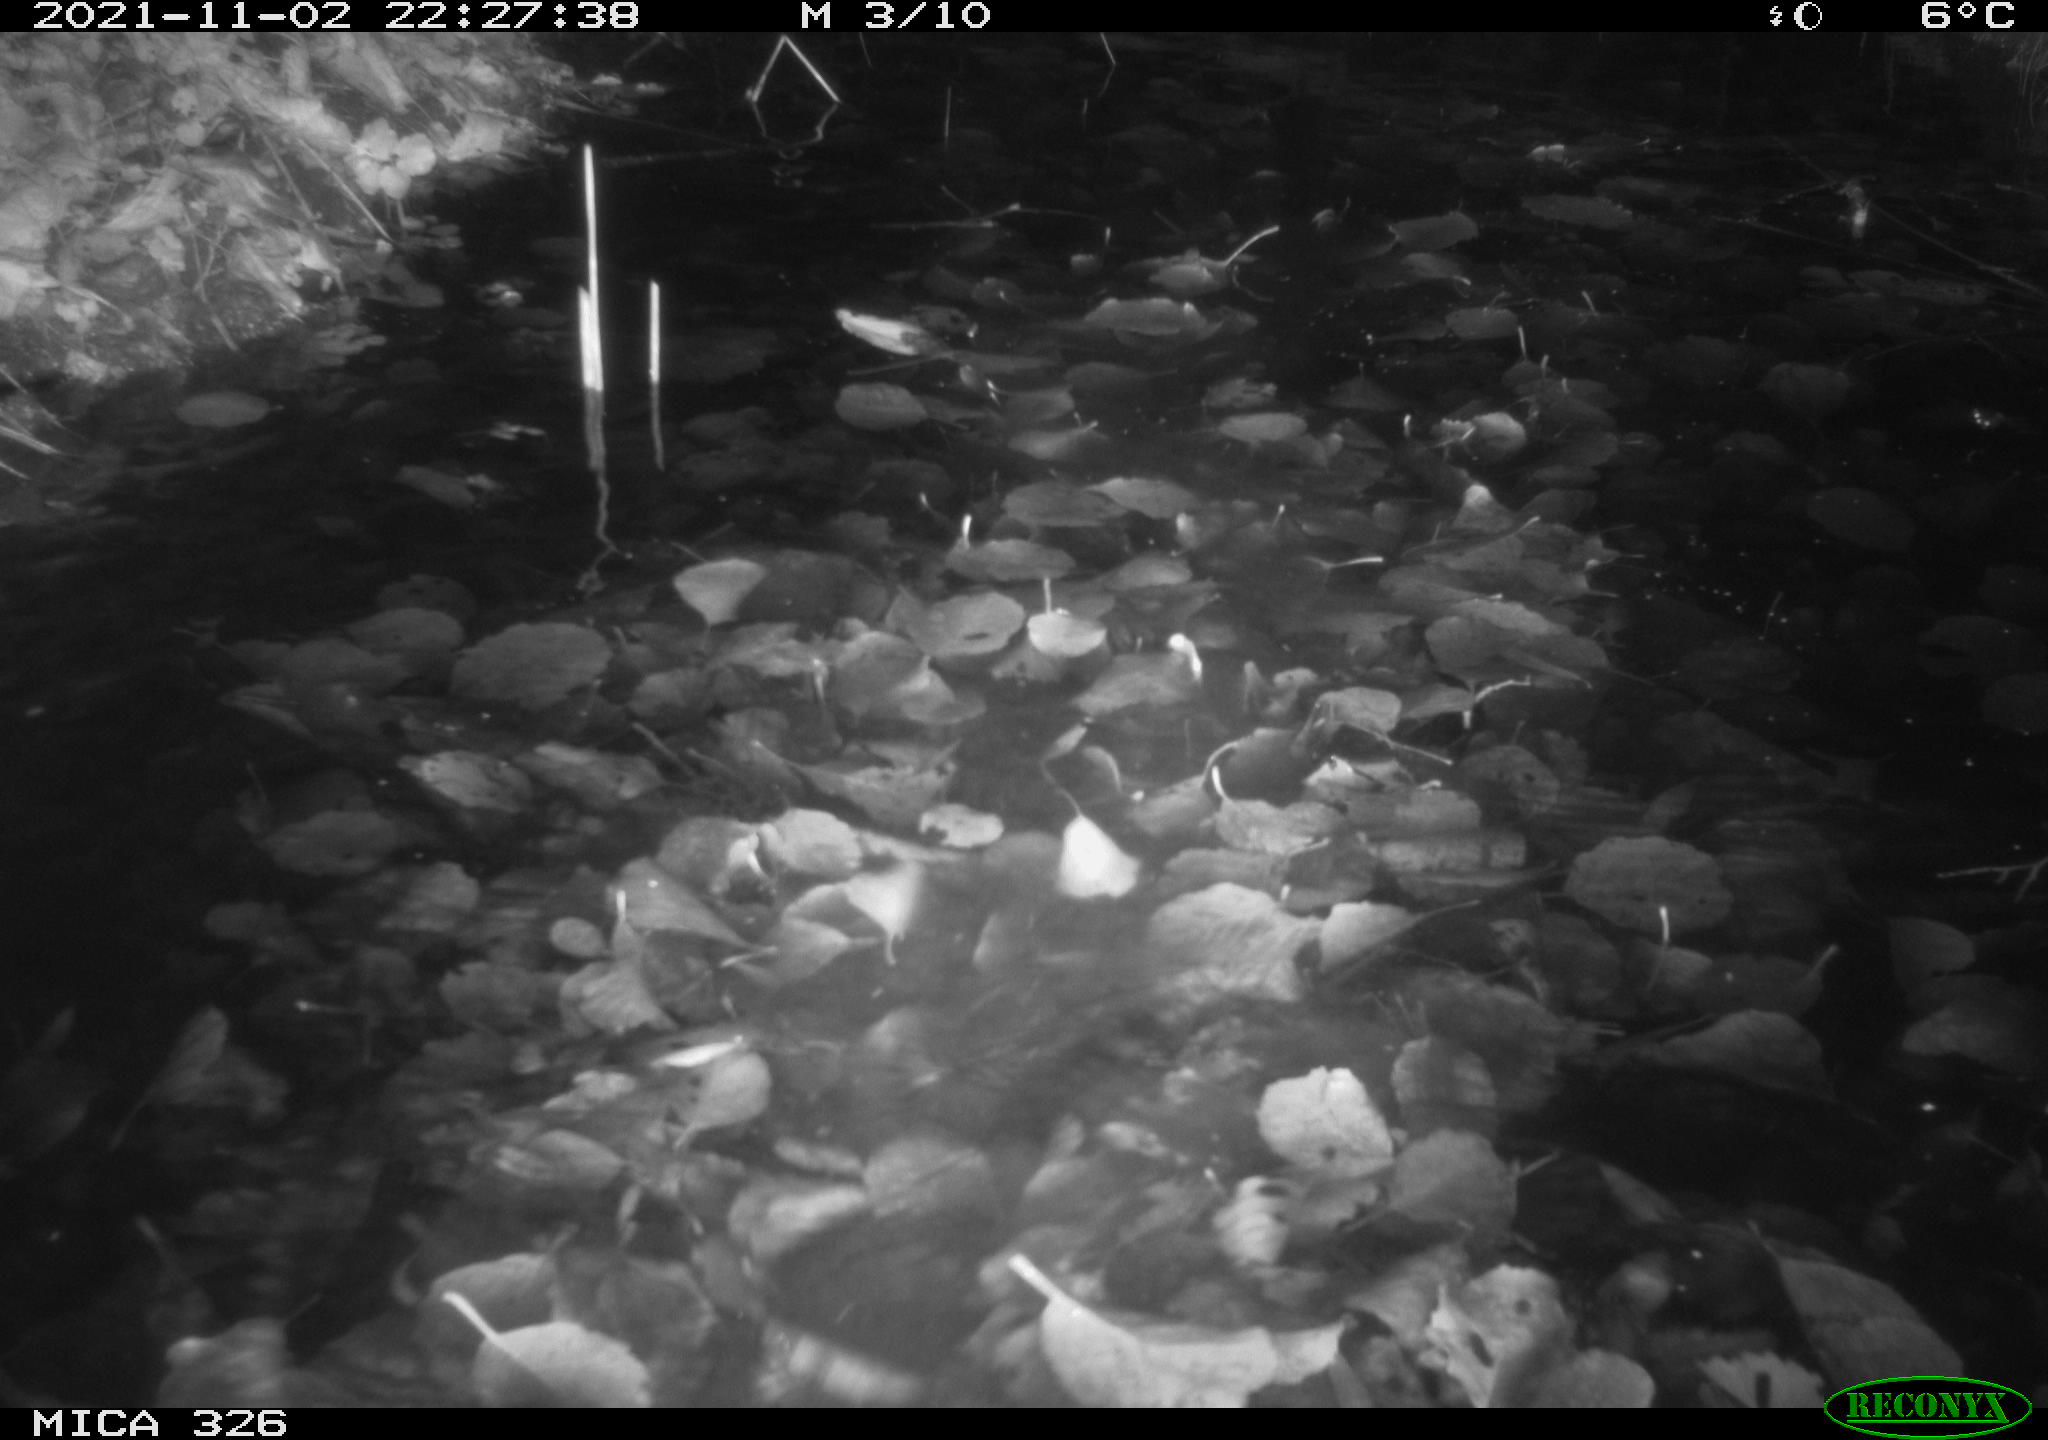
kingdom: Animalia
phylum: Chordata
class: Mammalia
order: Rodentia
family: Myocastoridae
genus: Myocastor
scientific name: Myocastor coypus
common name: Coypu
